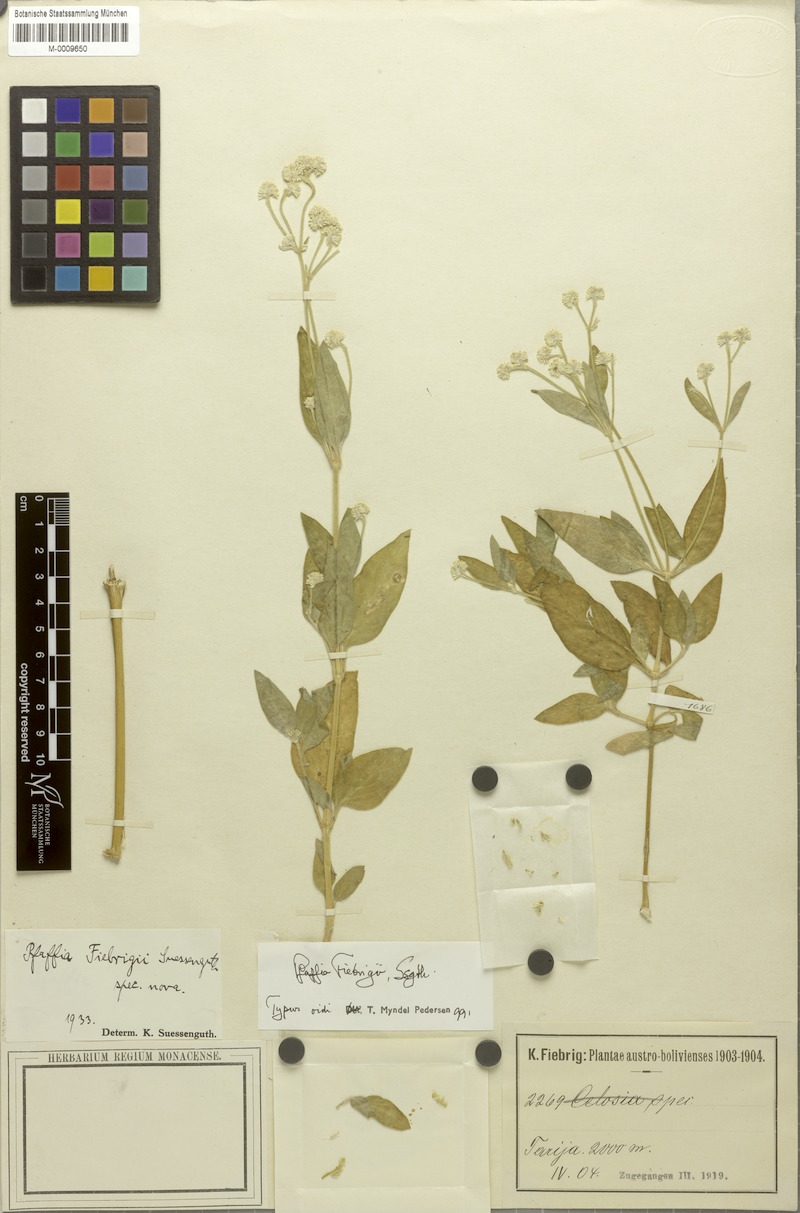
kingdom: Plantae
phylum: Tracheophyta
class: Magnoliopsida
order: Caryophyllales
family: Amaranthaceae
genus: Pfaffia
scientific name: Pfaffia glomerata
